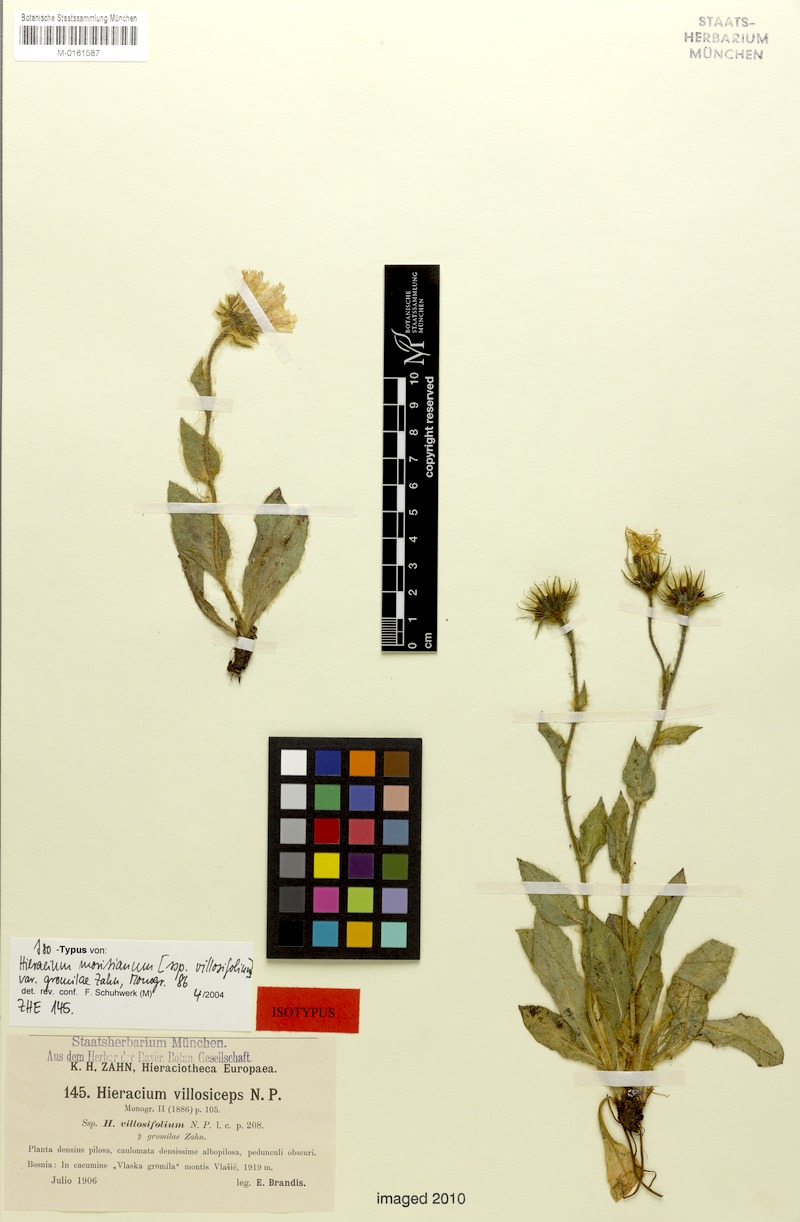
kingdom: Plantae
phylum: Tracheophyta
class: Magnoliopsida
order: Asterales
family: Asteraceae
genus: Hieracium
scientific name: Hieracium pilosum
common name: Fimbriate-pitted hawkweed
